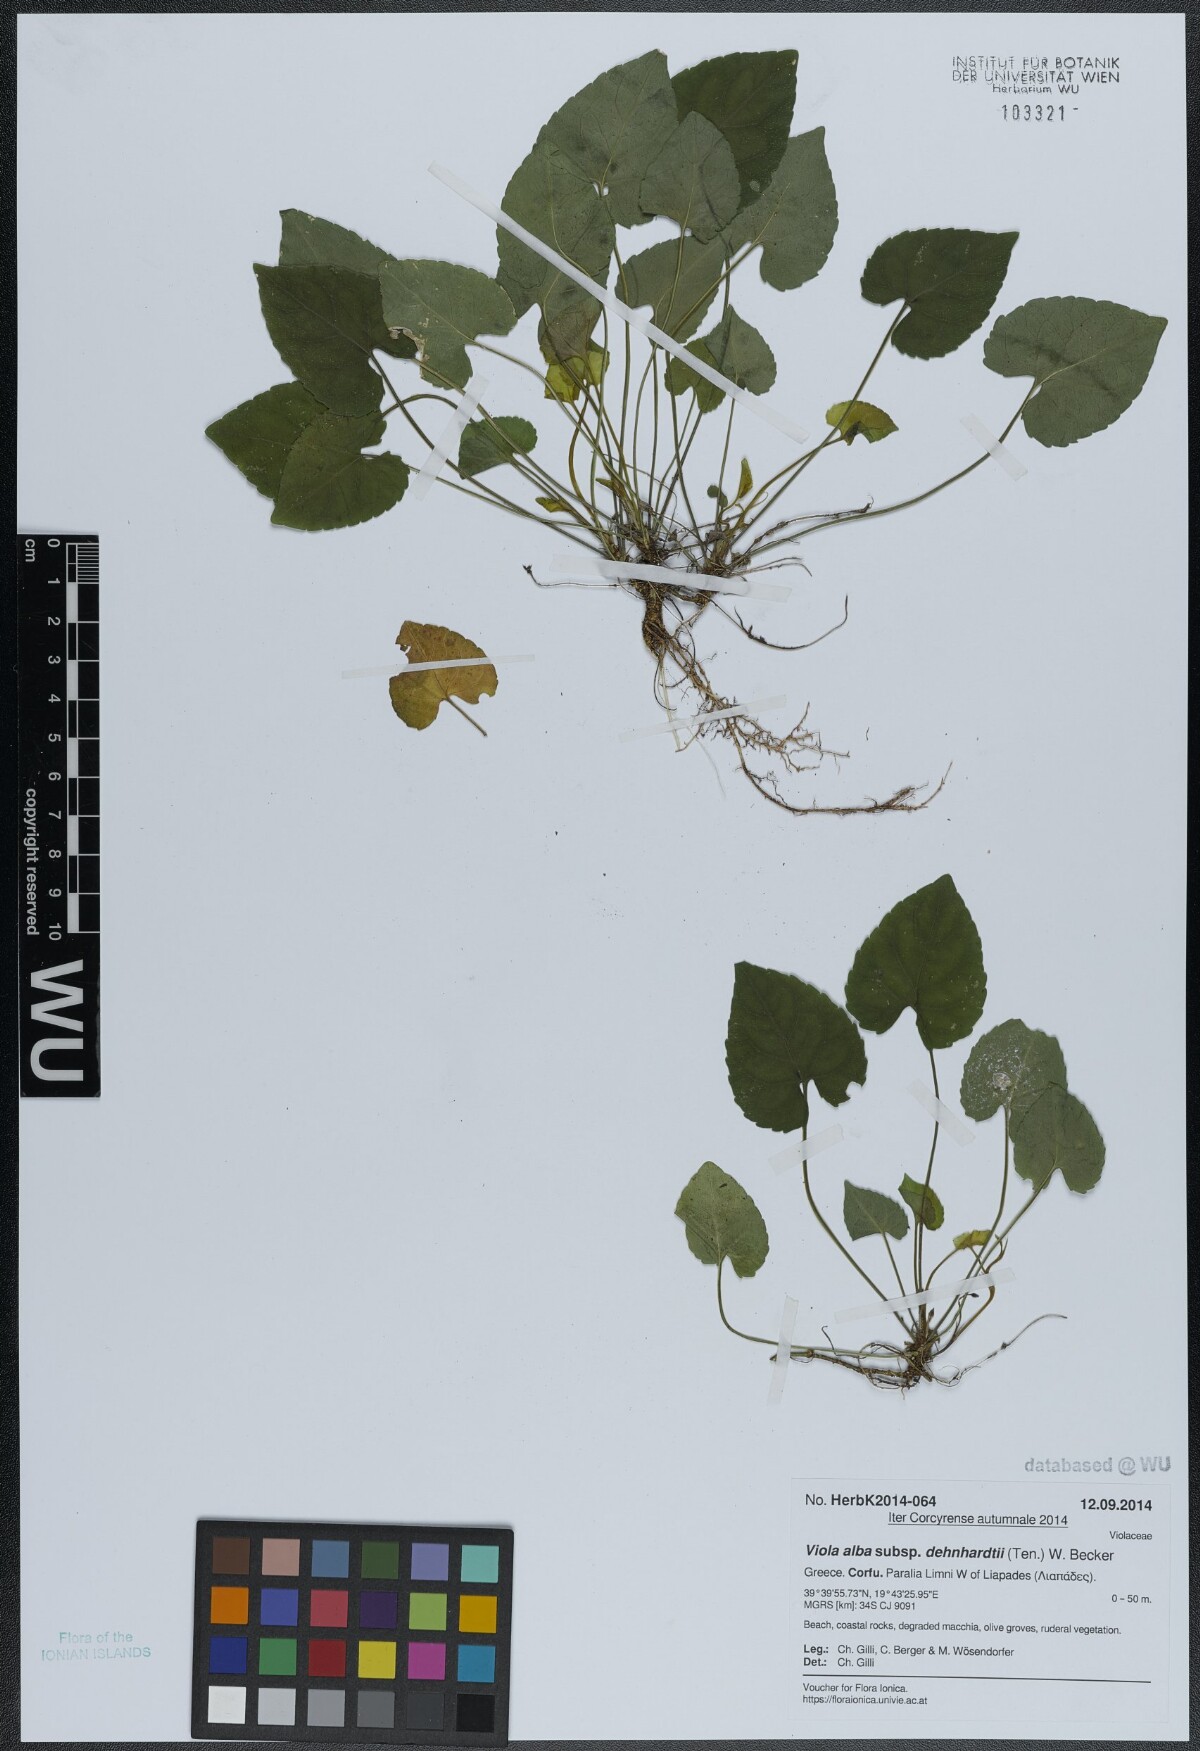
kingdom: Plantae
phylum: Tracheophyta
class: Magnoliopsida
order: Malpighiales
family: Violaceae
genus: Viola
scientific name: Viola alba
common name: White violet
